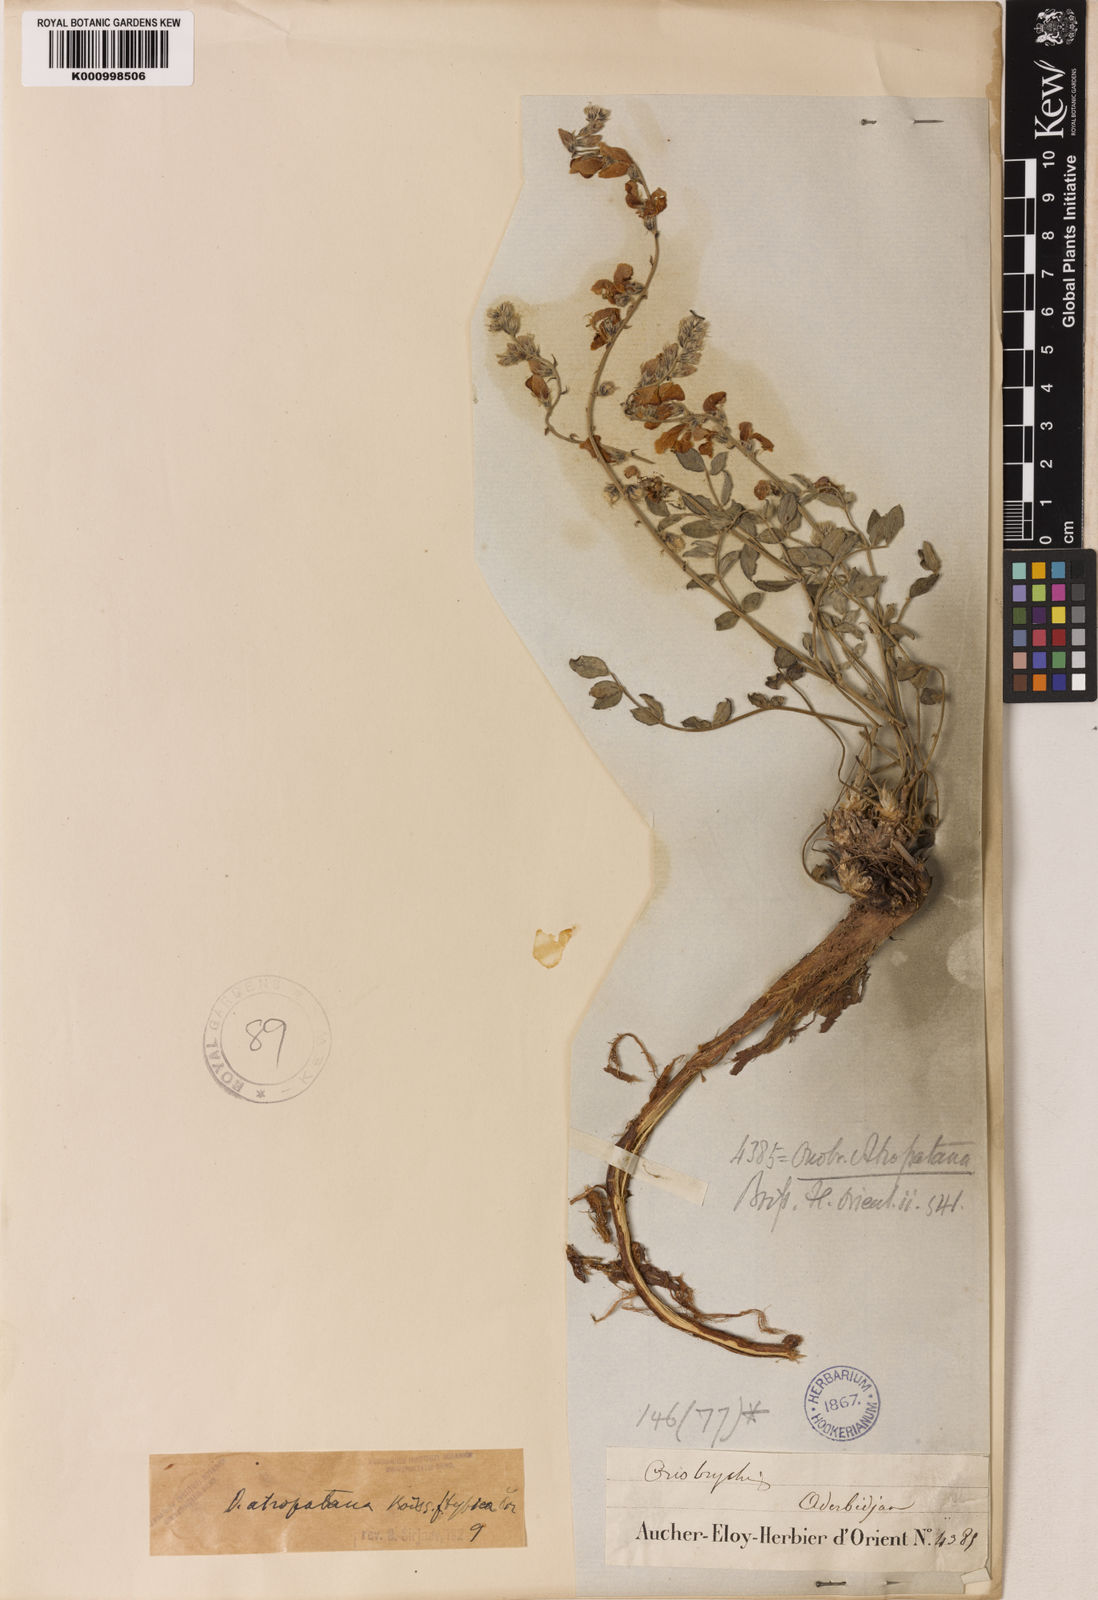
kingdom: Plantae
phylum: Tracheophyta
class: Magnoliopsida
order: Fabales
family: Fabaceae
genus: Onobrychis
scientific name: Onobrychis atropatana
